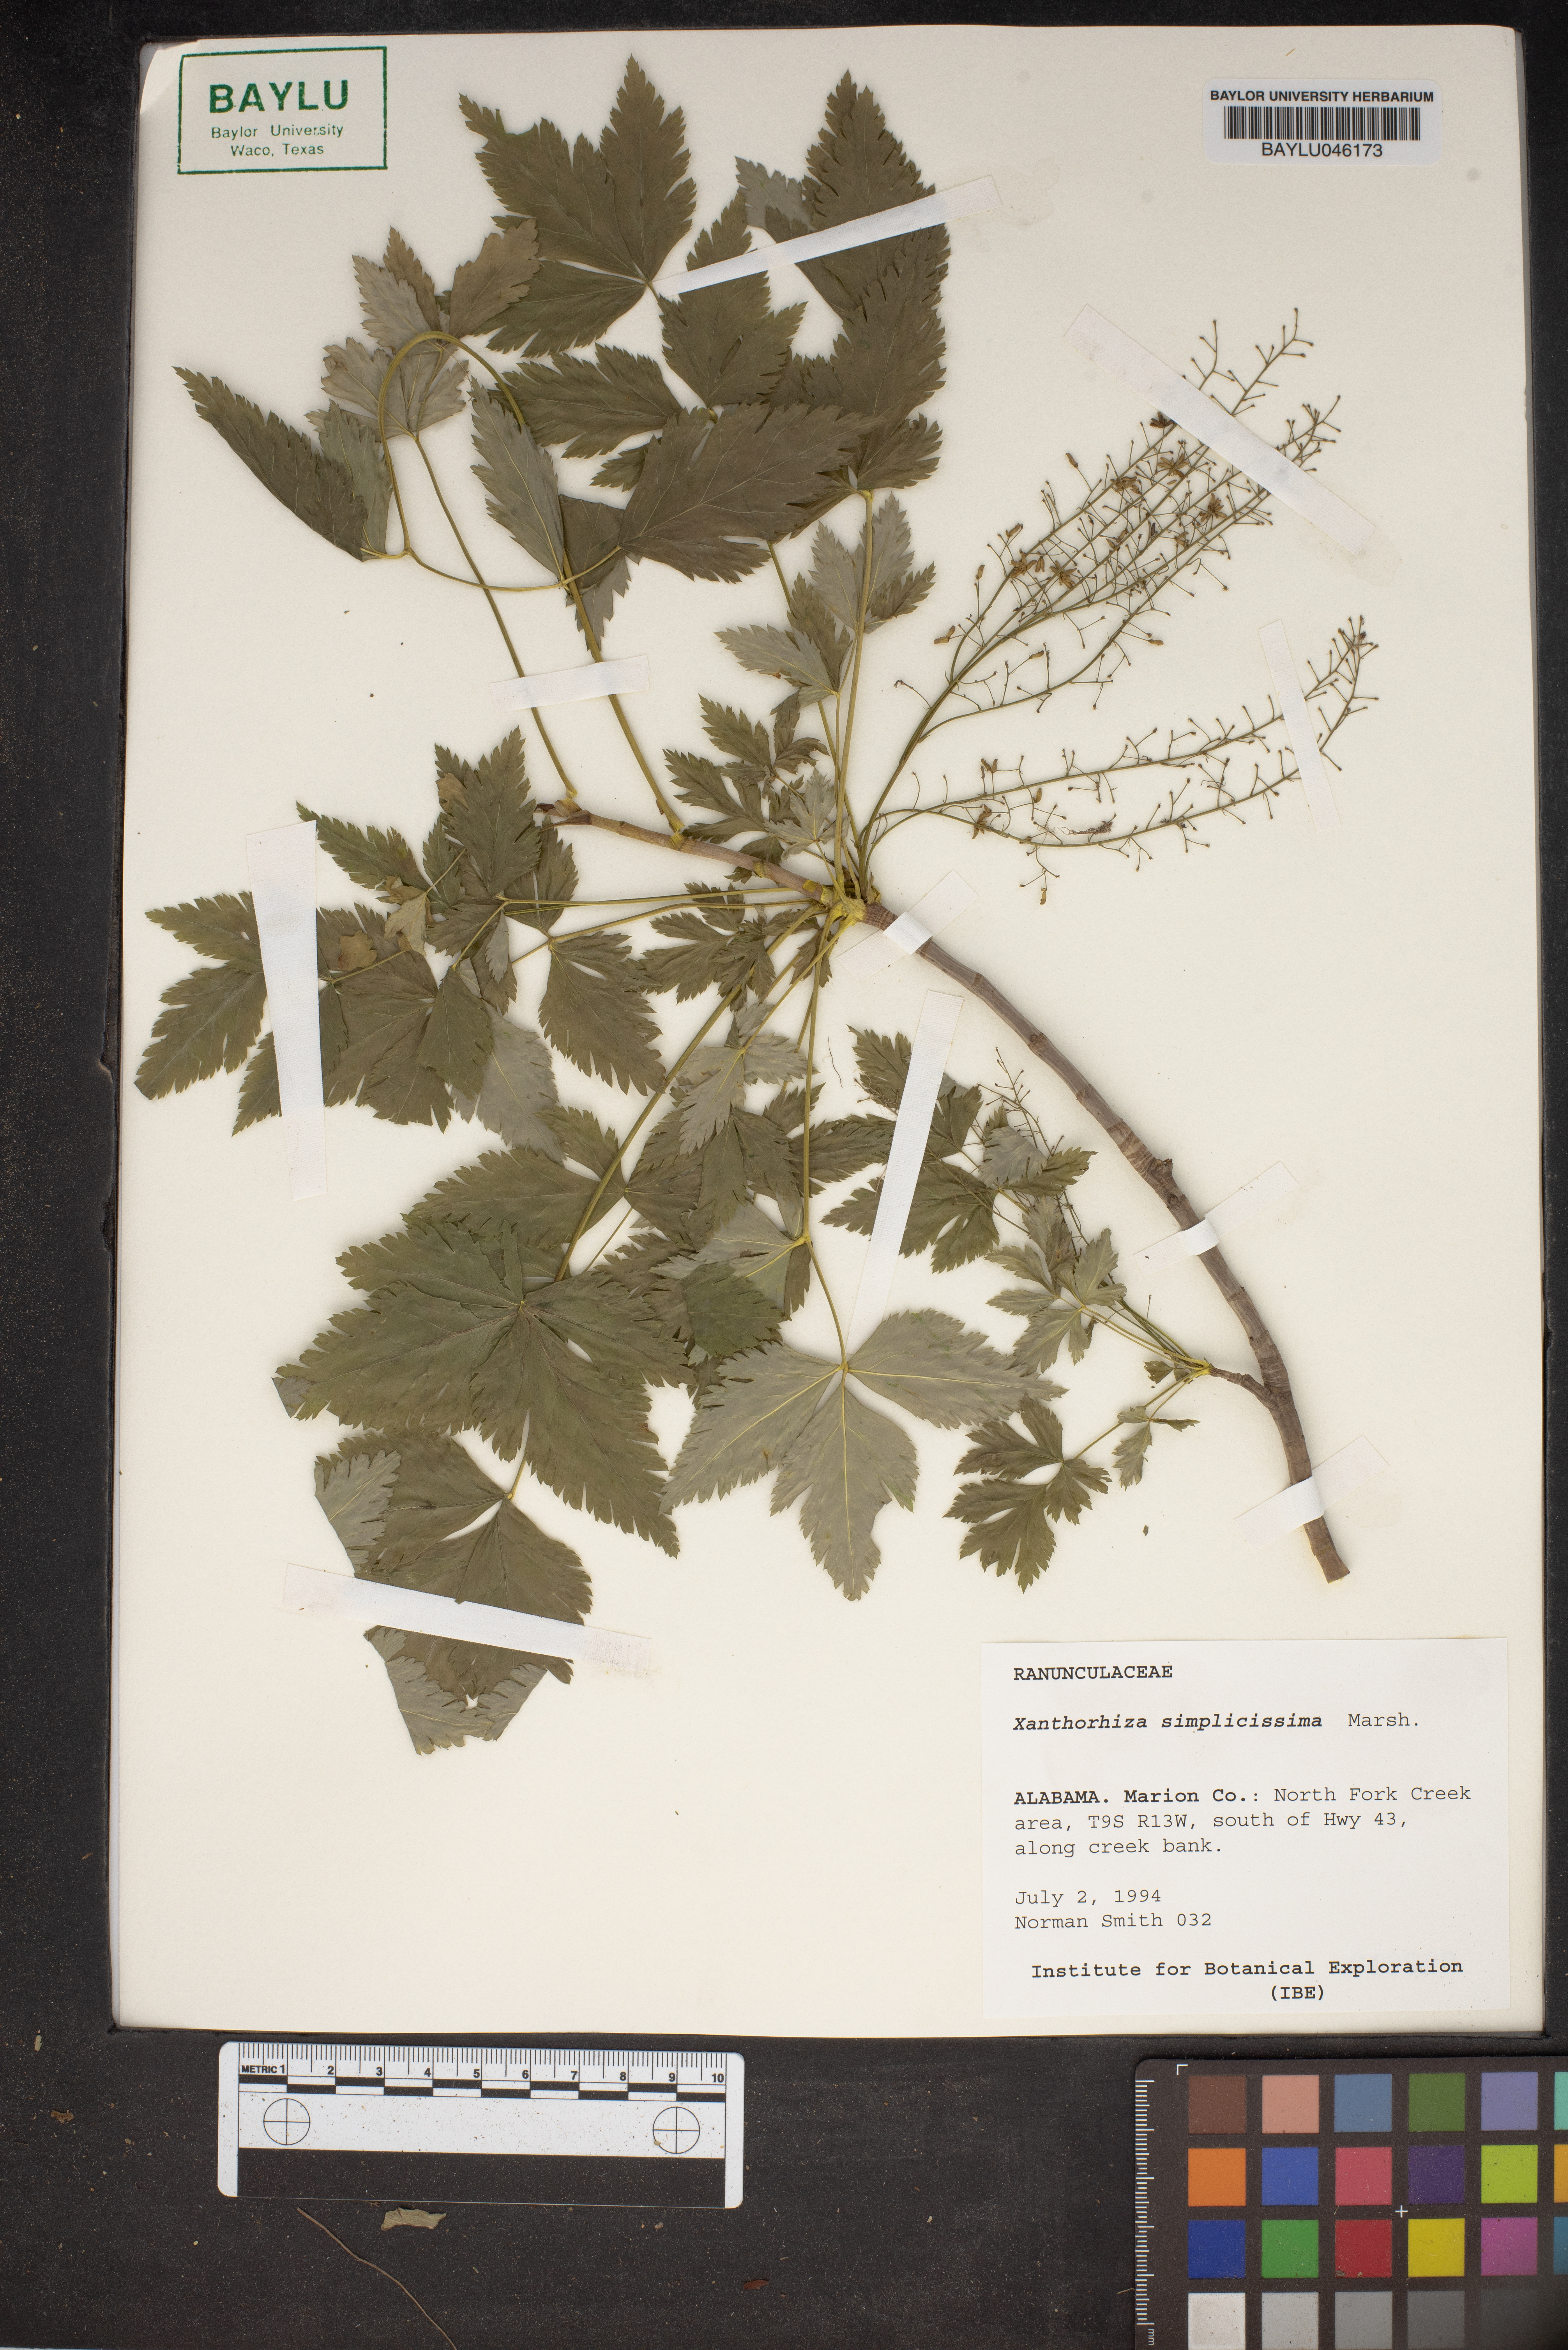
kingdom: Plantae
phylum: Tracheophyta
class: Magnoliopsida
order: Ranunculales
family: Ranunculaceae
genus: Xanthorhiza
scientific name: Xanthorhiza simplicissima
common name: Yellowroot
